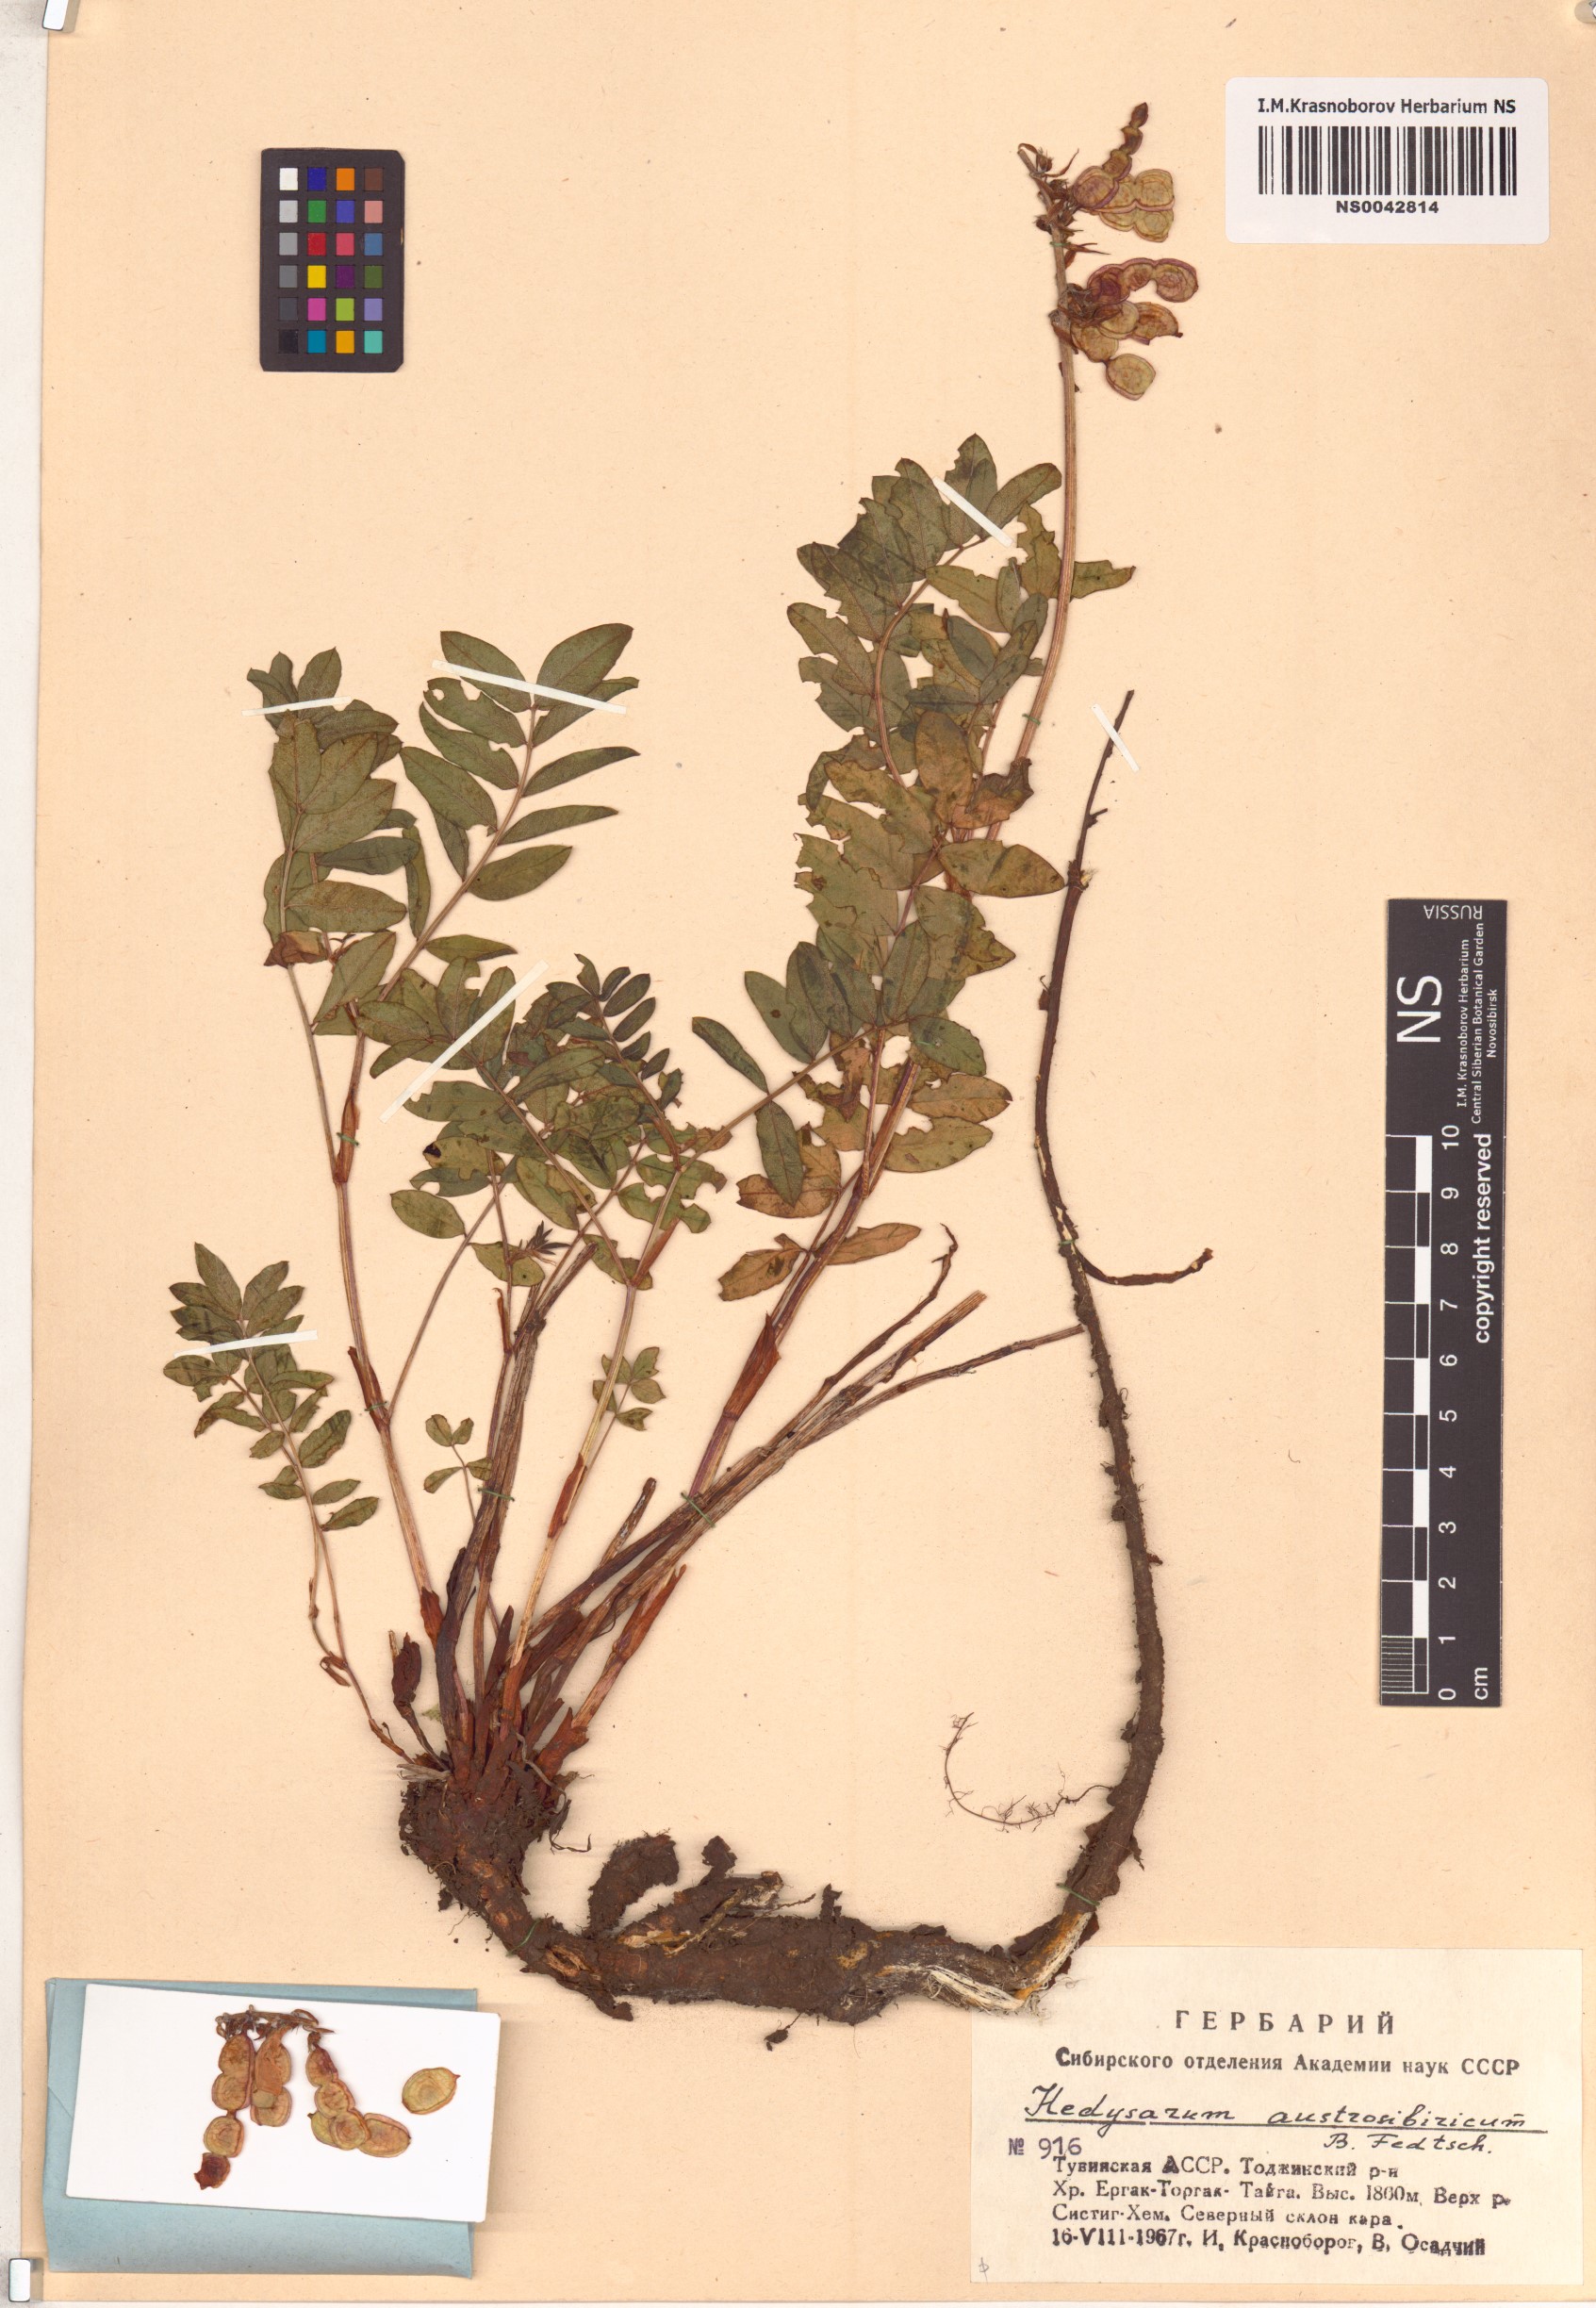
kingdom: Plantae
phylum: Tracheophyta
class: Magnoliopsida
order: Fabales
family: Fabaceae
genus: Hedysarum
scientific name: Hedysarum neglectum
